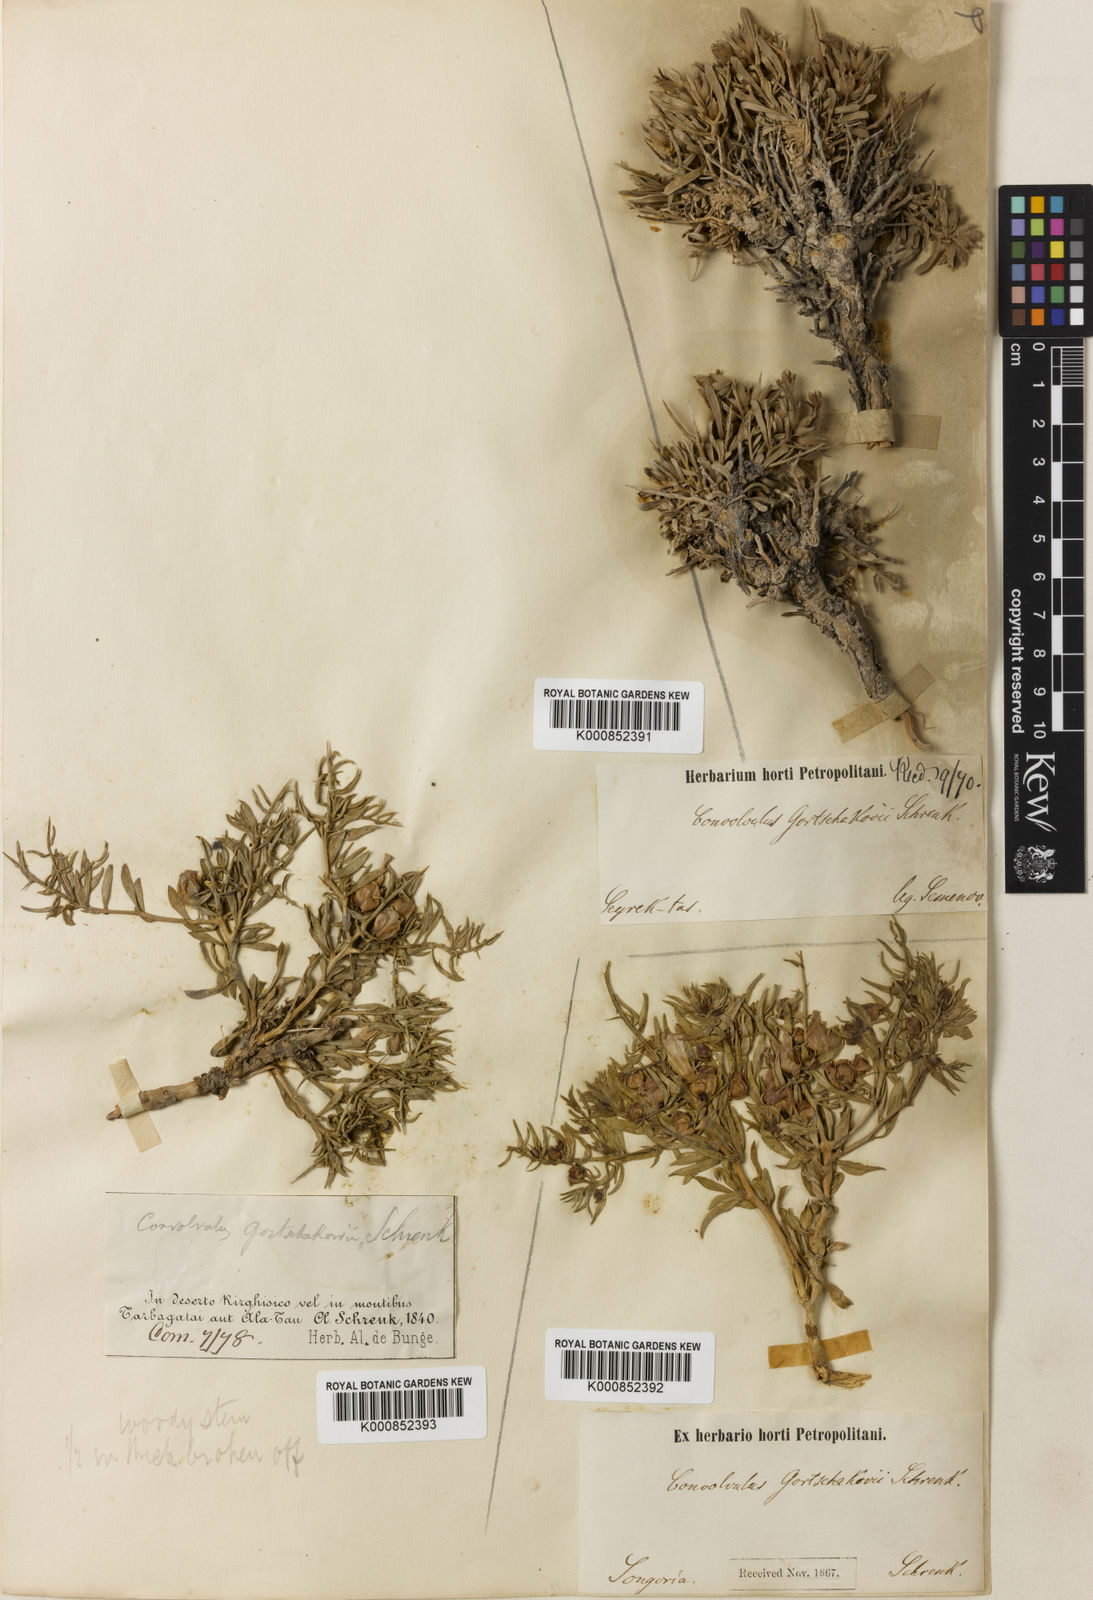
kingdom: Plantae
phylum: Tracheophyta
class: Magnoliopsida
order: Solanales
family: Convolvulaceae
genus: Convolvulus
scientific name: Convolvulus
